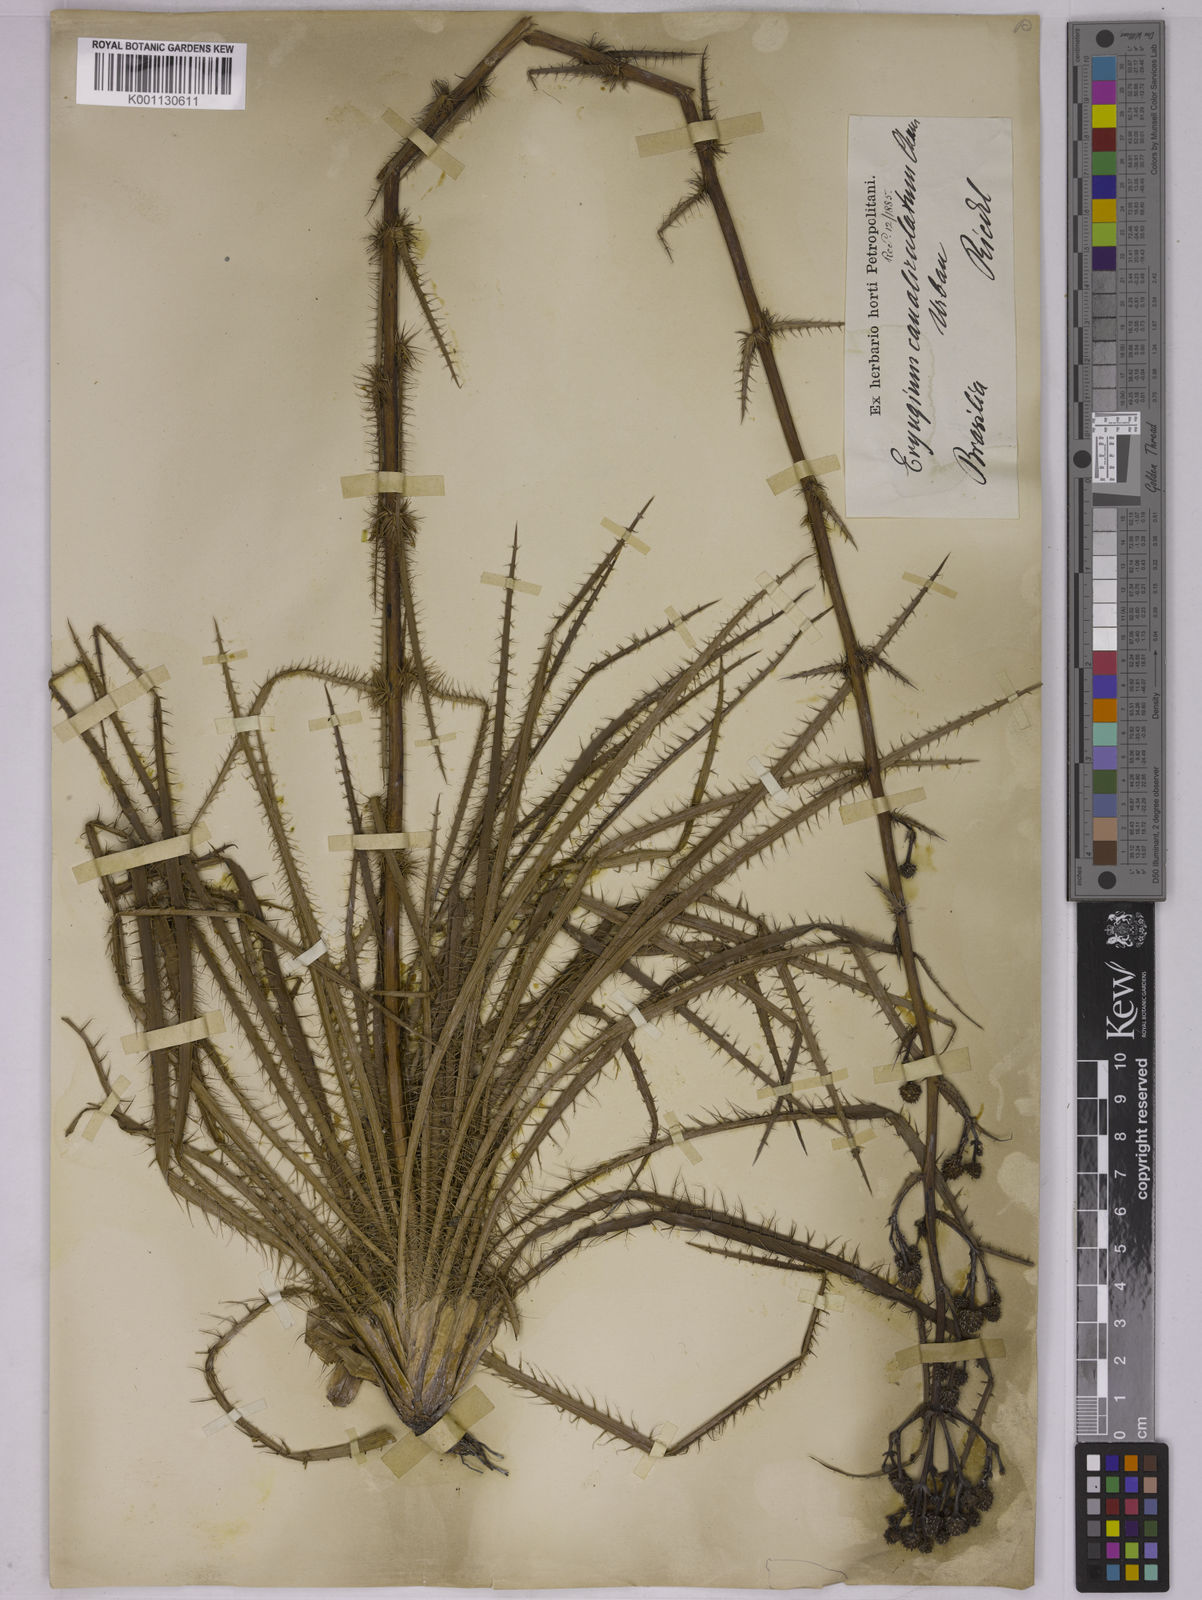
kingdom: Plantae
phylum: Tracheophyta
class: Magnoliopsida
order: Apiales
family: Apiaceae
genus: Eryngium
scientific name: Eryngium canaliculatum
